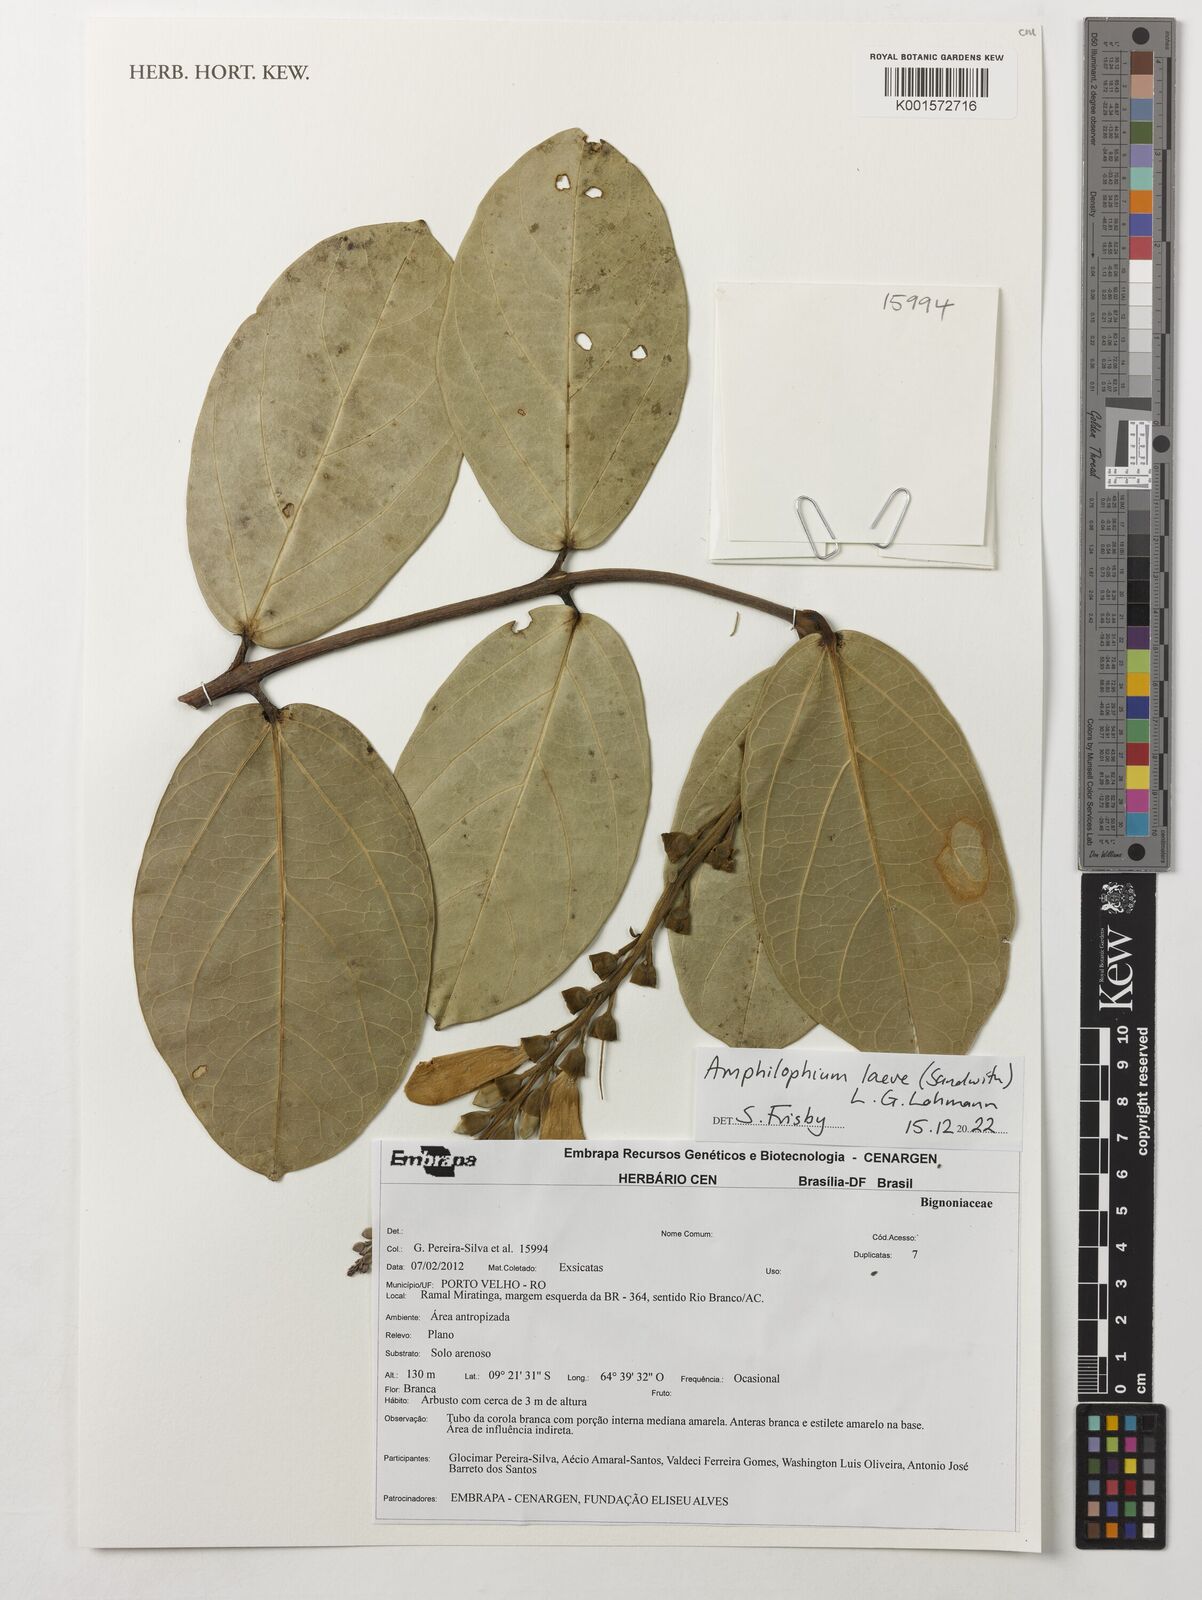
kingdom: Plantae
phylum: Tracheophyta
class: Magnoliopsida
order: Lamiales
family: Bignoniaceae
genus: Amphilophium
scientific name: Amphilophium laevis
